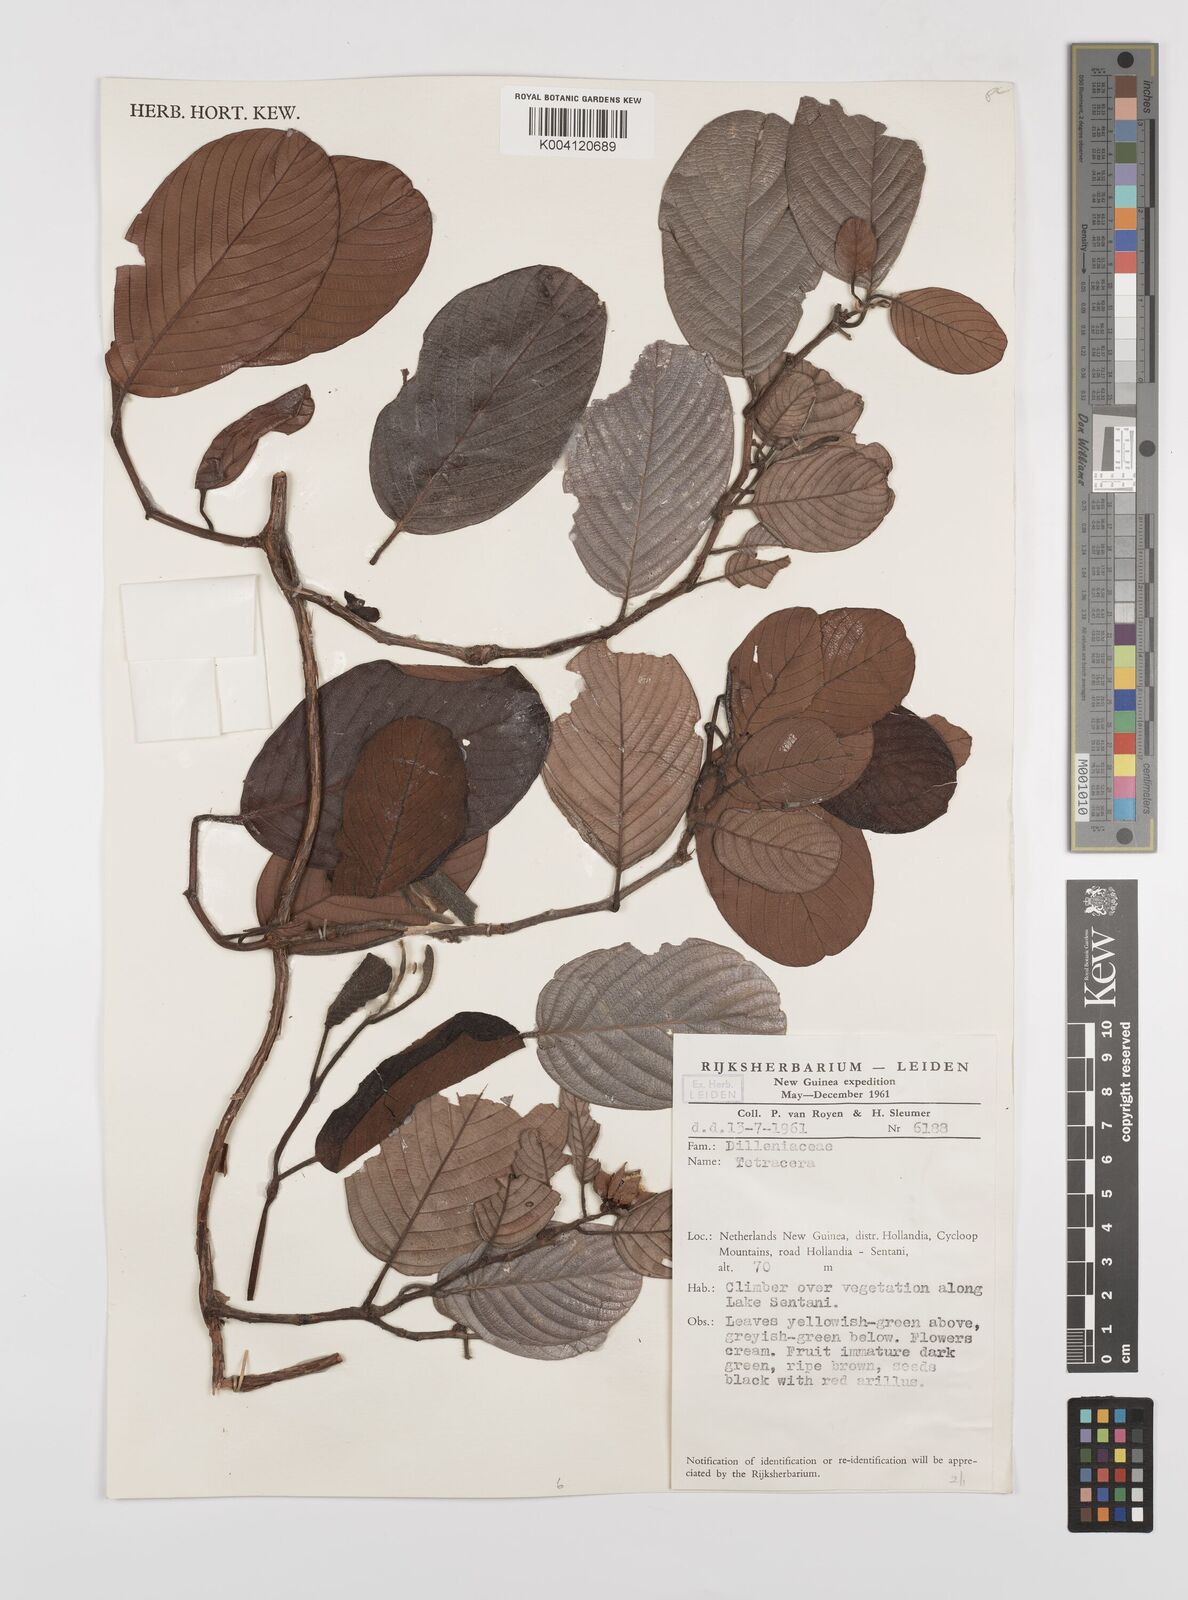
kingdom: Plantae
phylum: Tracheophyta
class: Magnoliopsida
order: Dilleniales
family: Dilleniaceae
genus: Tetracera
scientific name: Tetracera lanuginosa
